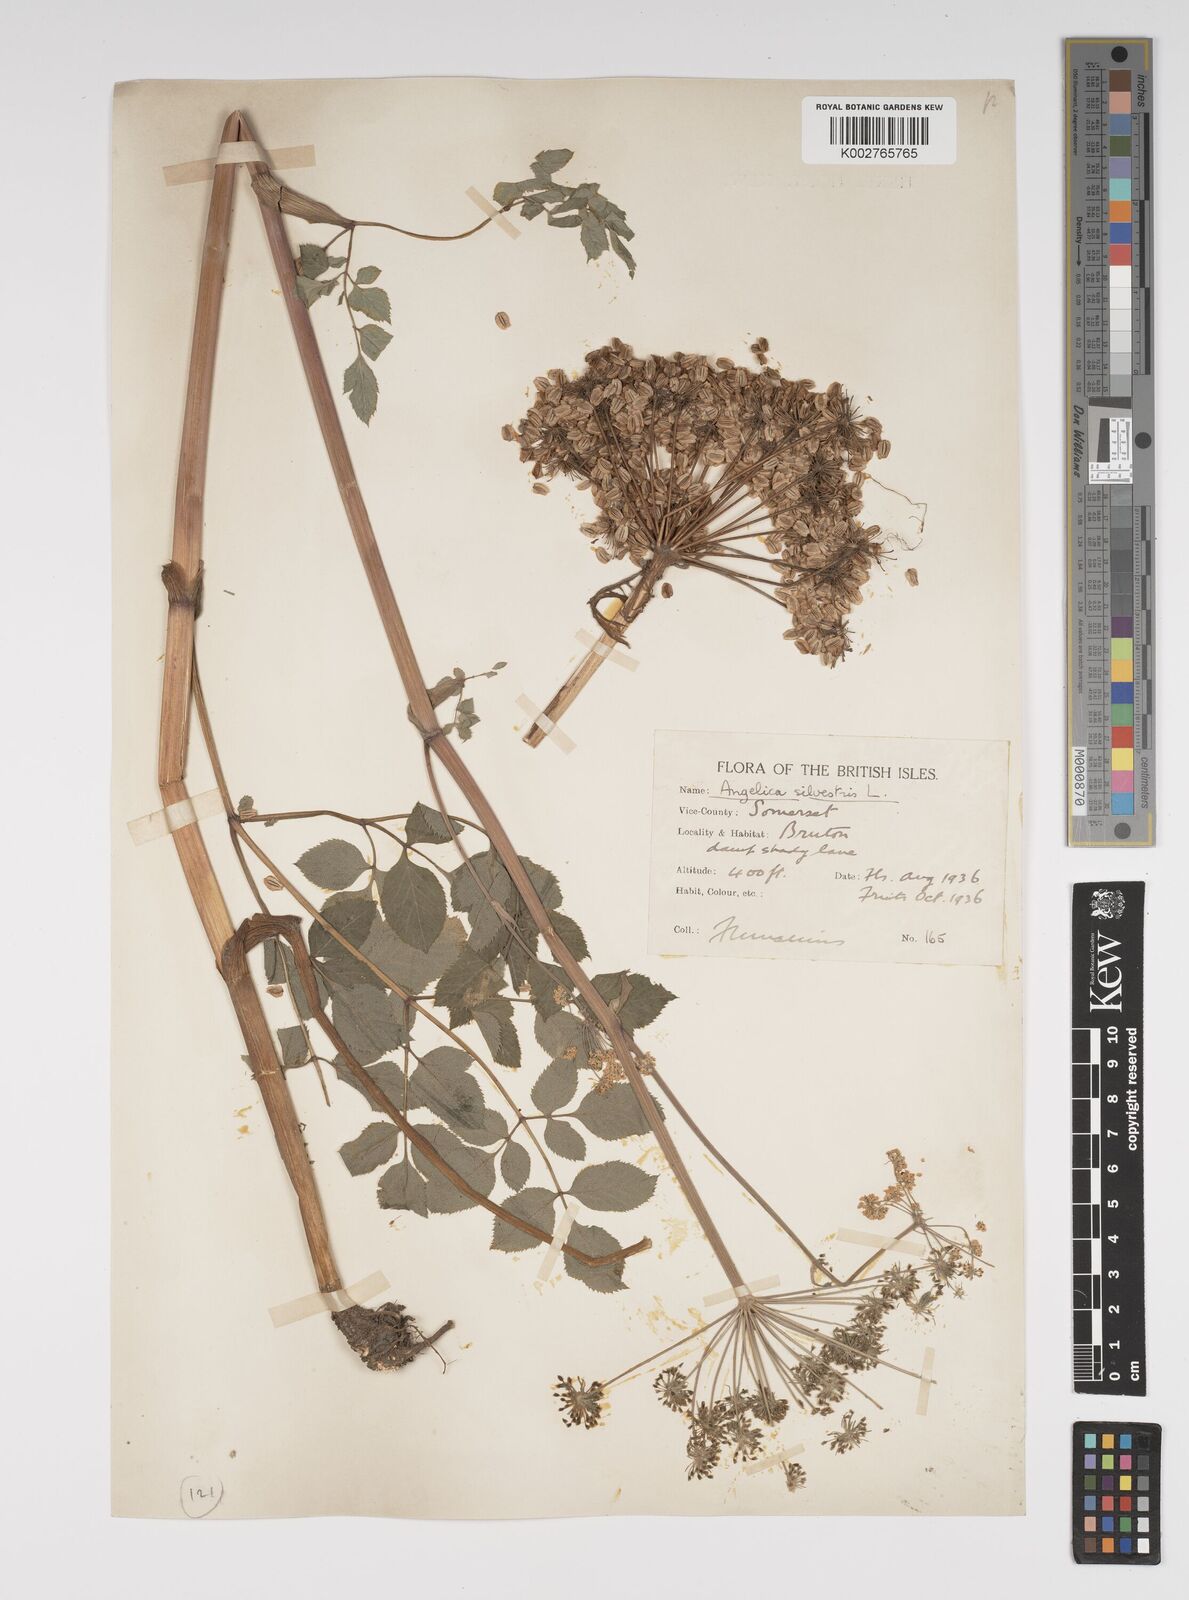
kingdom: Plantae
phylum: Tracheophyta
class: Magnoliopsida
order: Apiales
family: Apiaceae
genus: Angelica
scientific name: Angelica sylvestris
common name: Wild angelica
